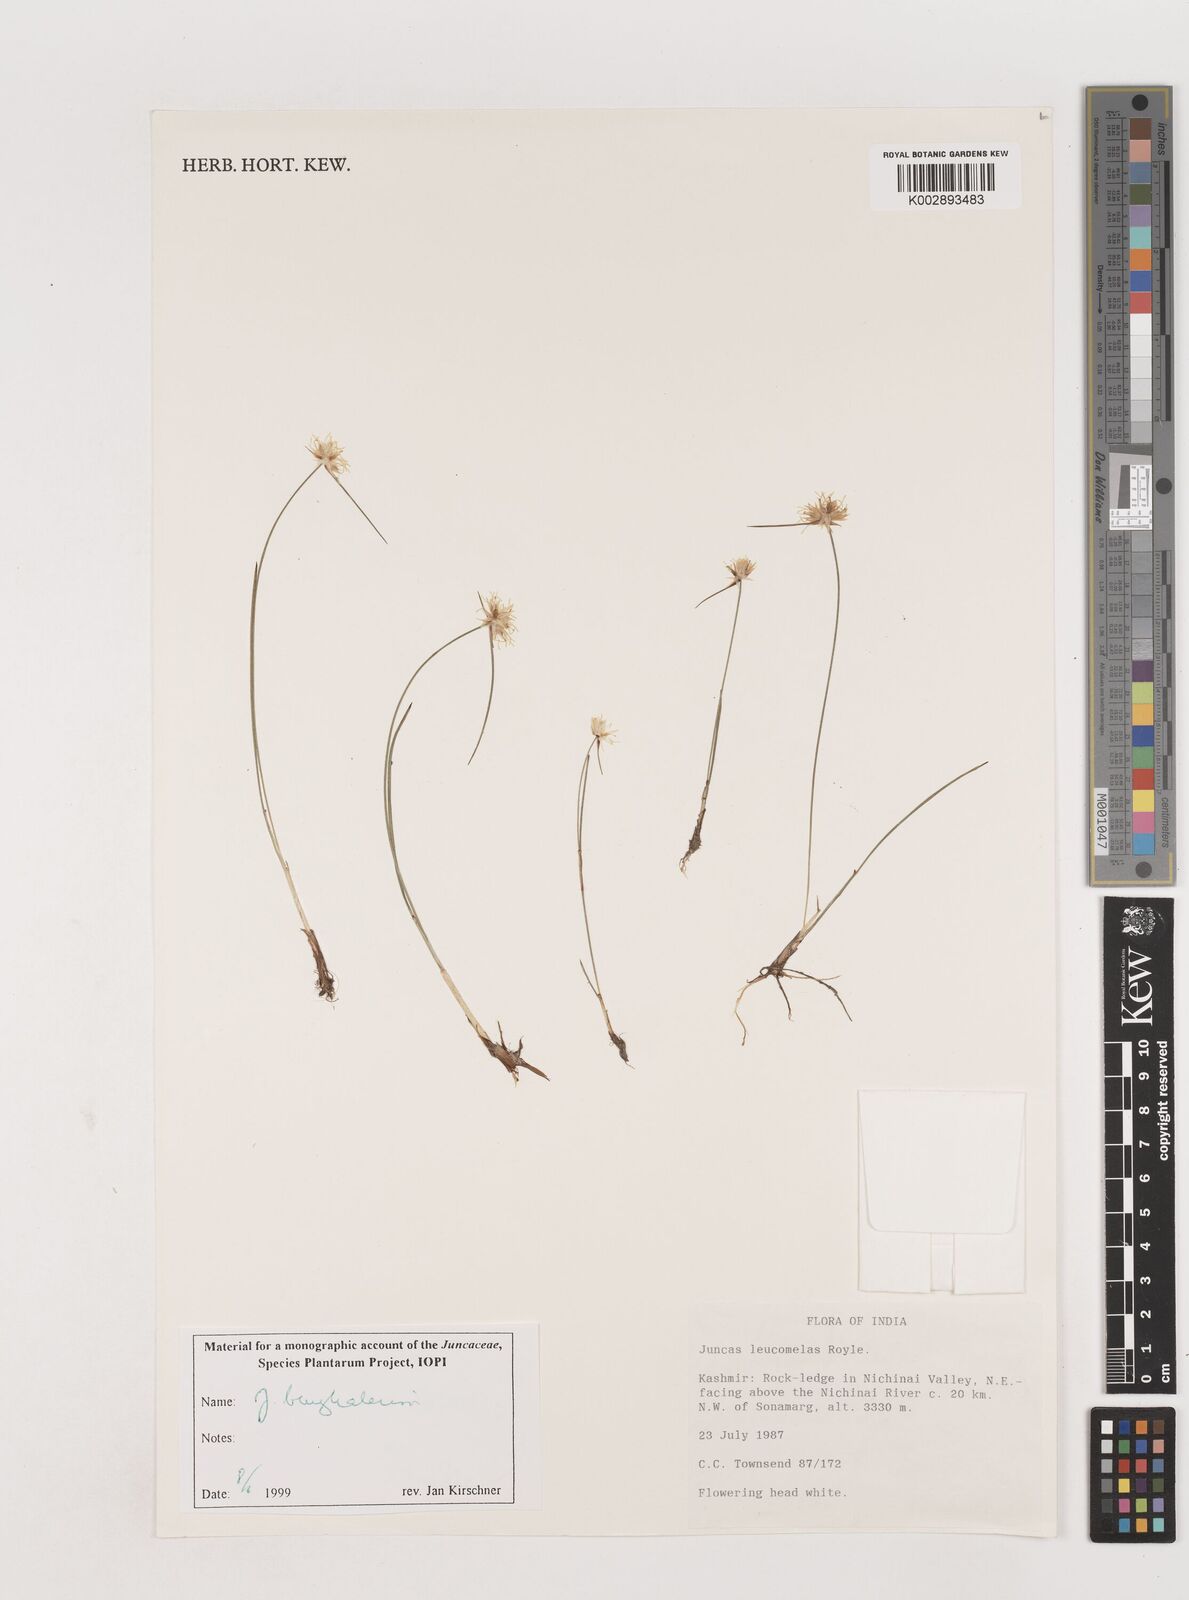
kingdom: Plantae
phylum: Tracheophyta
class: Liliopsida
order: Poales
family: Juncaceae
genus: Juncus
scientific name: Juncus benghalensis
